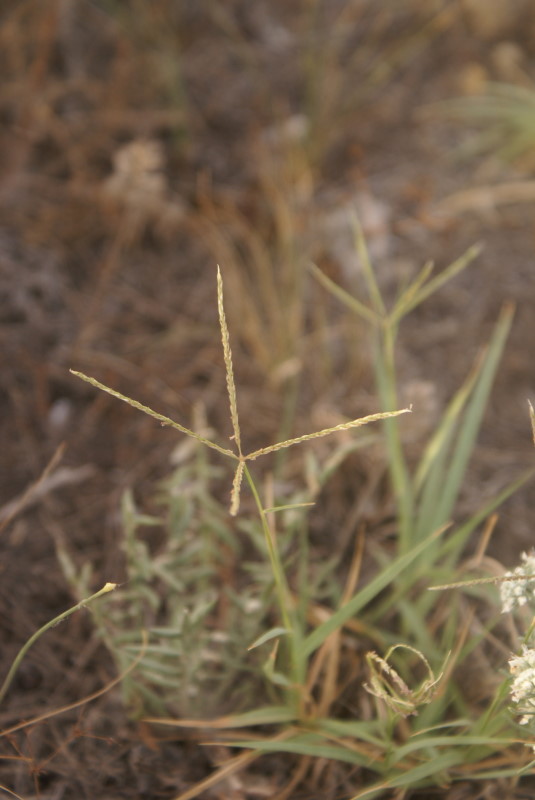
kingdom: Plantae
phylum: Tracheophyta
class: Liliopsida
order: Poales
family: Poaceae
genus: Cynodon
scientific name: Cynodon dactylon
